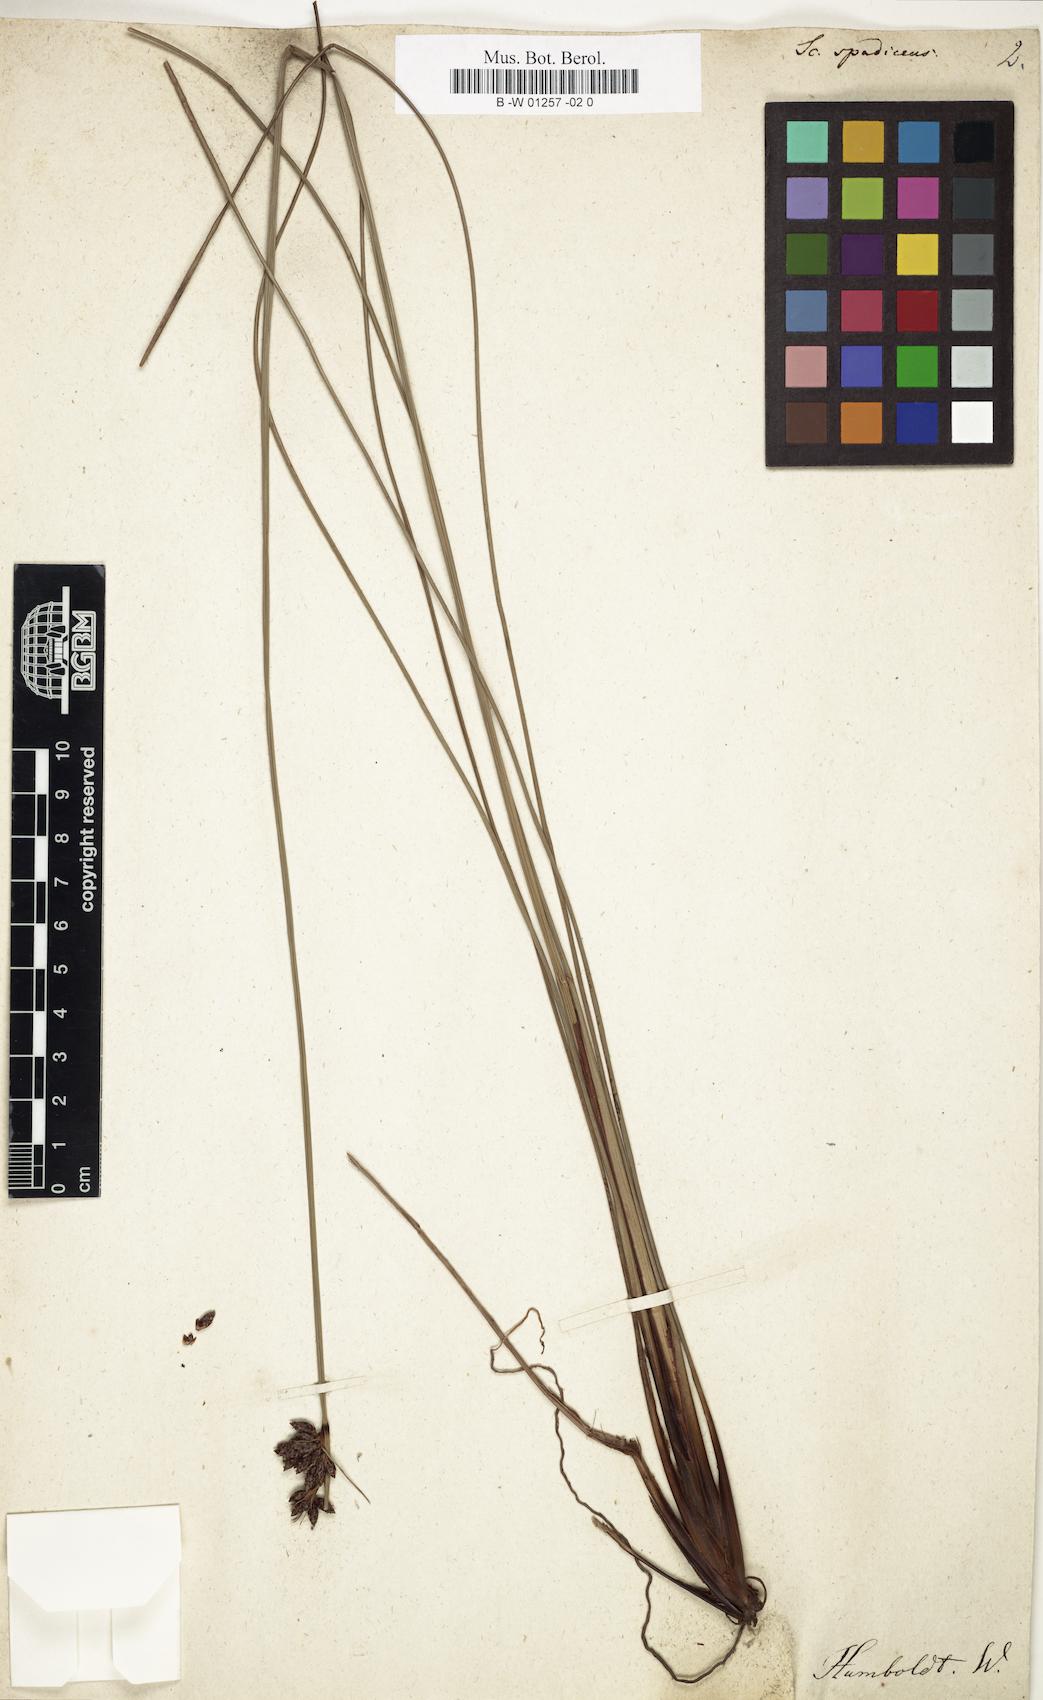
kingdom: Plantae
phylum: Tracheophyta
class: Liliopsida
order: Poales
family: Cyperaceae
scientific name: Cyperaceae
